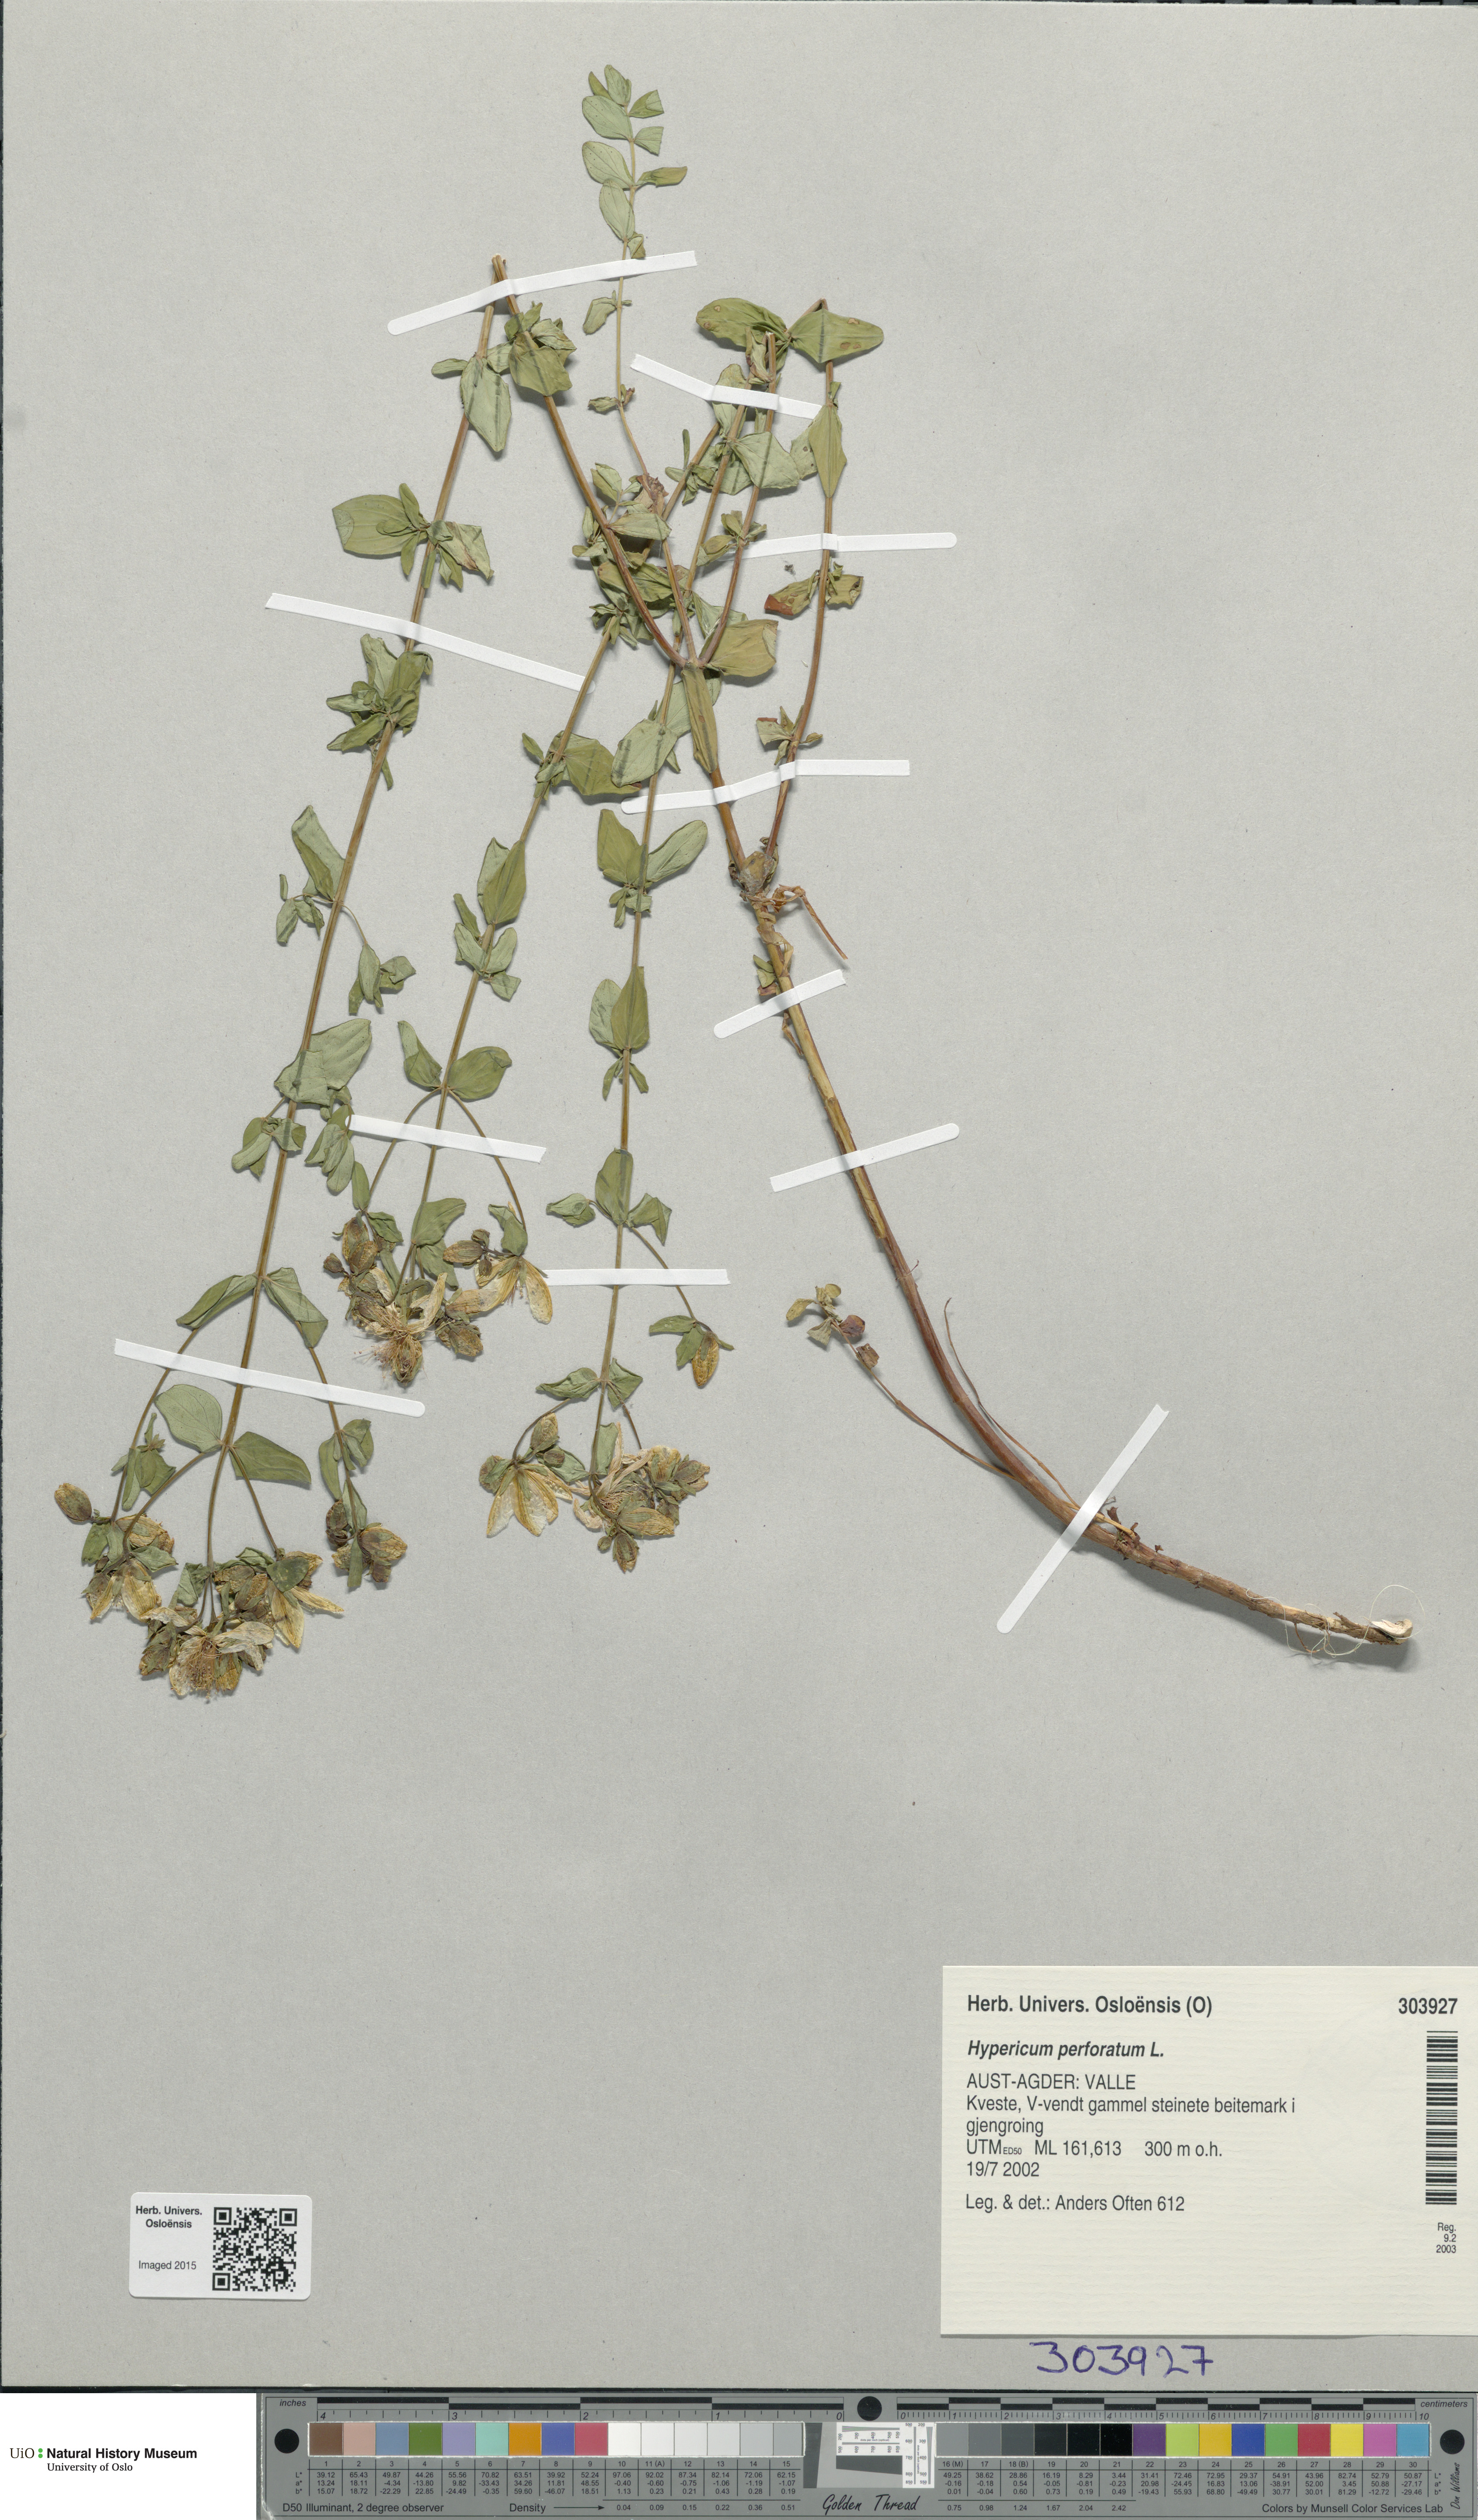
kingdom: Plantae
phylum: Tracheophyta
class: Magnoliopsida
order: Malpighiales
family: Hypericaceae
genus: Hypericum
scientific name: Hypericum perforatum
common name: Common st. johnswort
